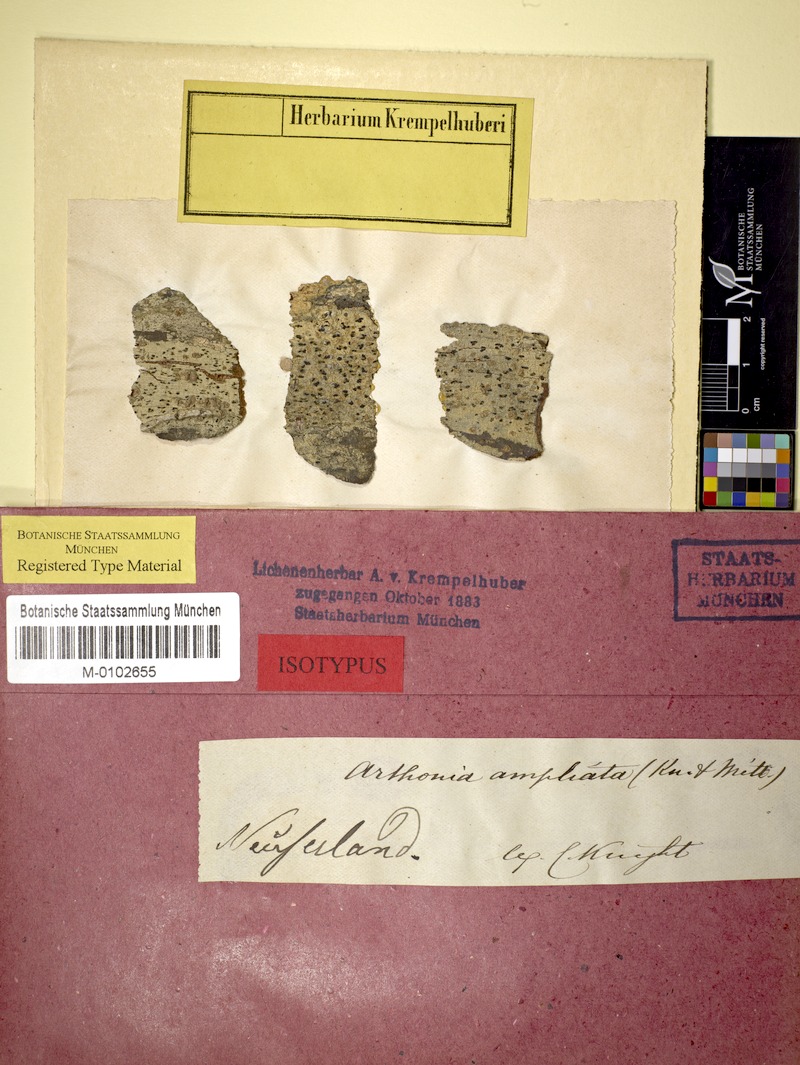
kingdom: Fungi
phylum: Ascomycota
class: Arthoniomycetes
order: Arthoniales
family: Arthoniaceae
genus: Arthothelium
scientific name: Arthothelium ampliatum
